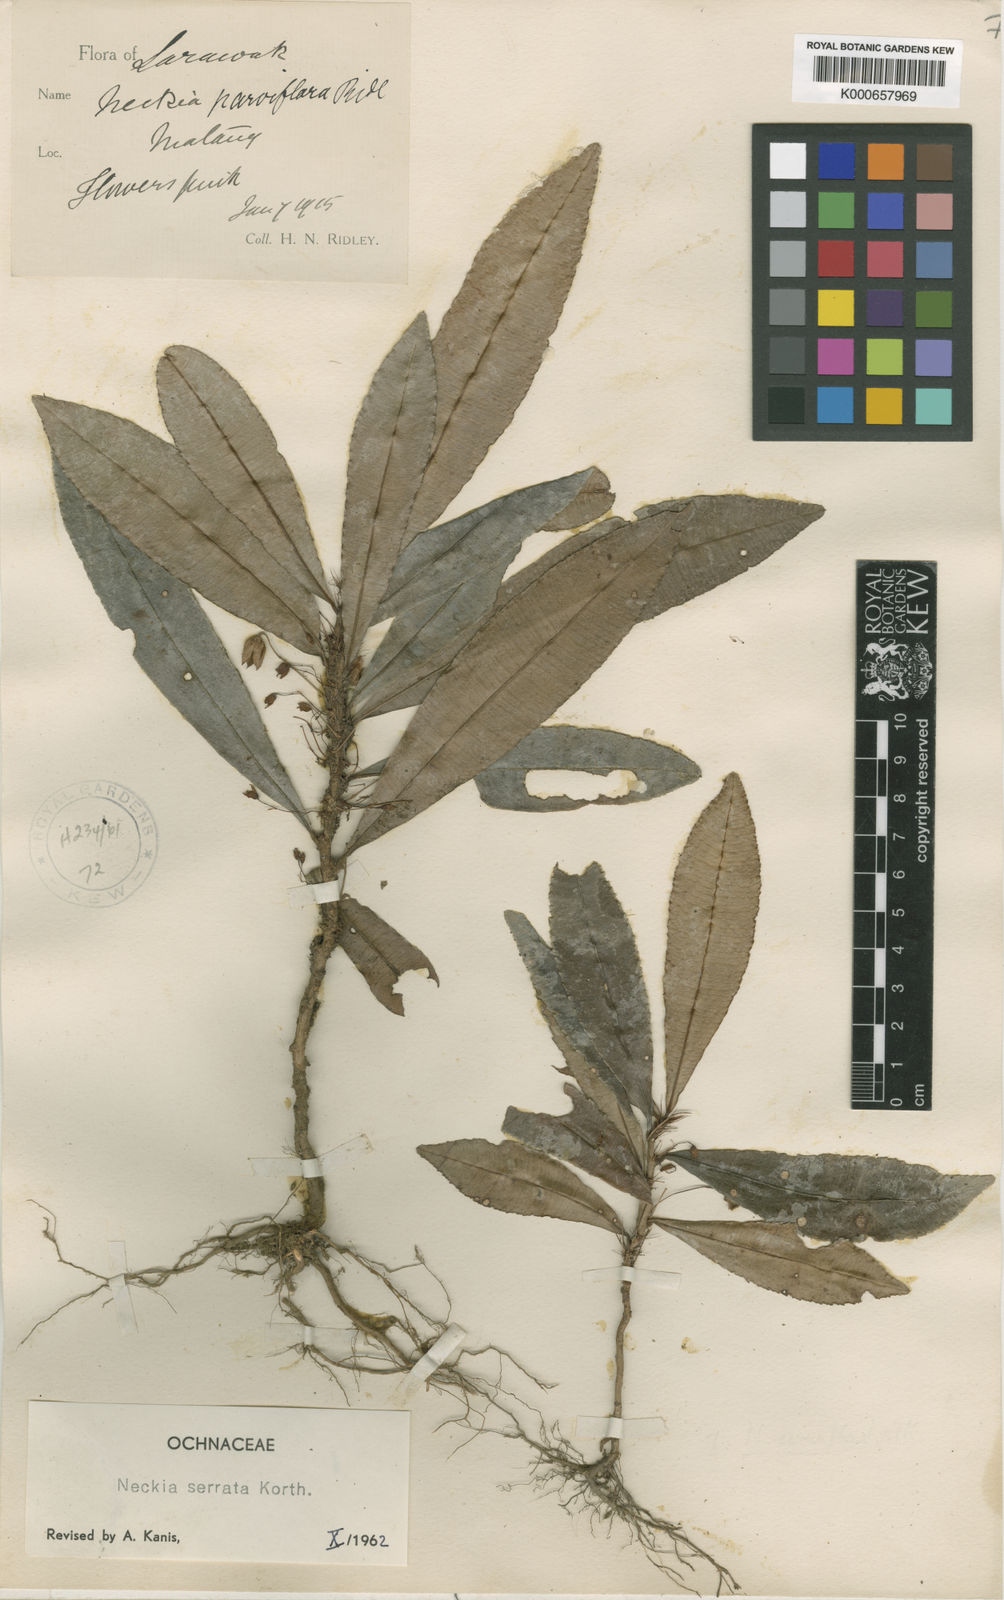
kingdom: Plantae
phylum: Tracheophyta
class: Magnoliopsida
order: Malpighiales
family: Ochnaceae
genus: Neckia
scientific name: Neckia serrata
